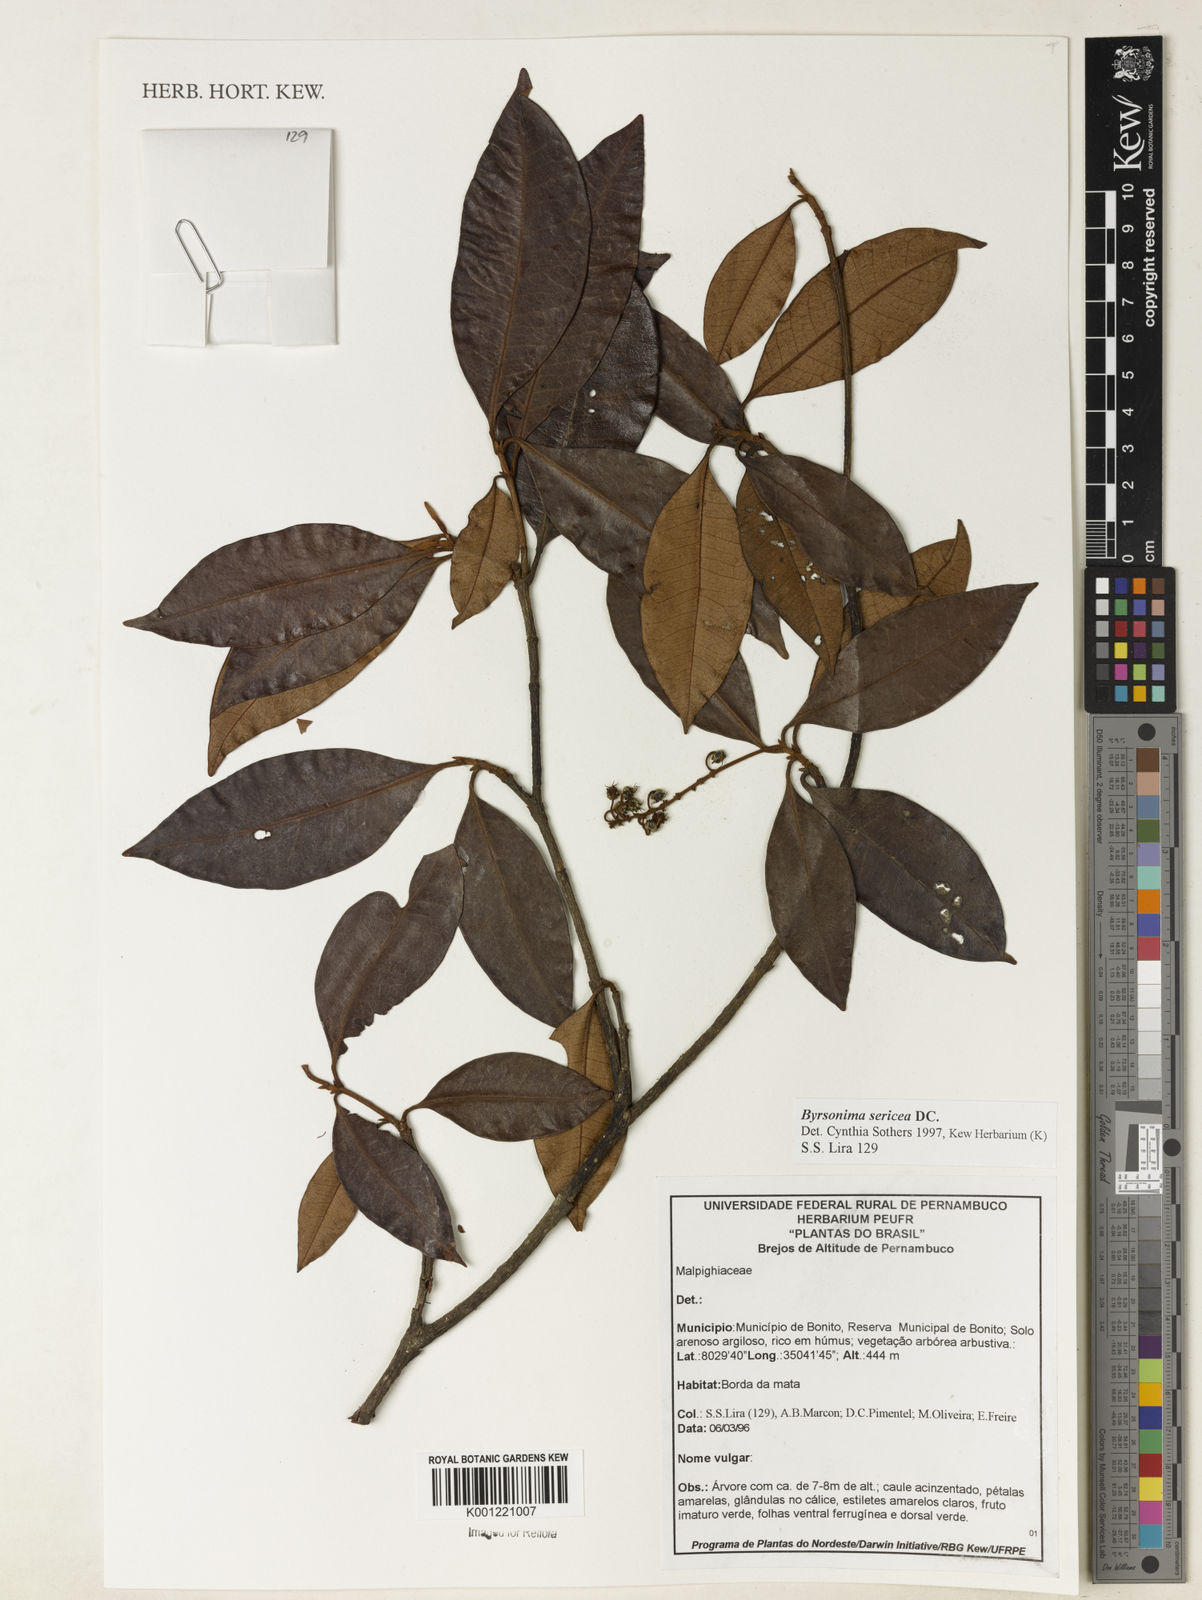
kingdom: Plantae
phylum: Tracheophyta
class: Magnoliopsida
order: Malpighiales
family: Malpighiaceae
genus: Byrsonima
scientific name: Byrsonima sericea
